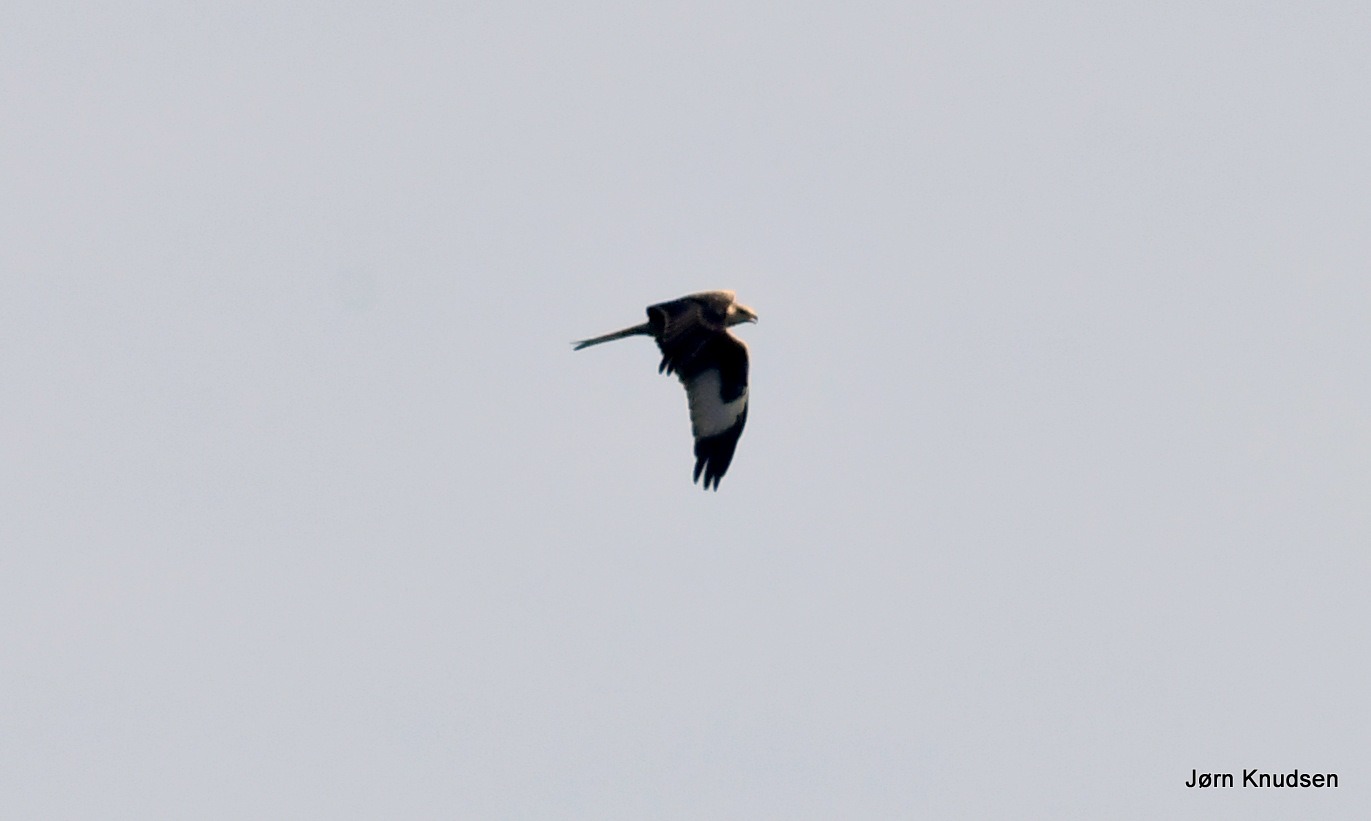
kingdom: Animalia
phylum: Chordata
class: Aves
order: Accipitriformes
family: Accipitridae
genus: Milvus
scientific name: Milvus milvus
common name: Rød glente
